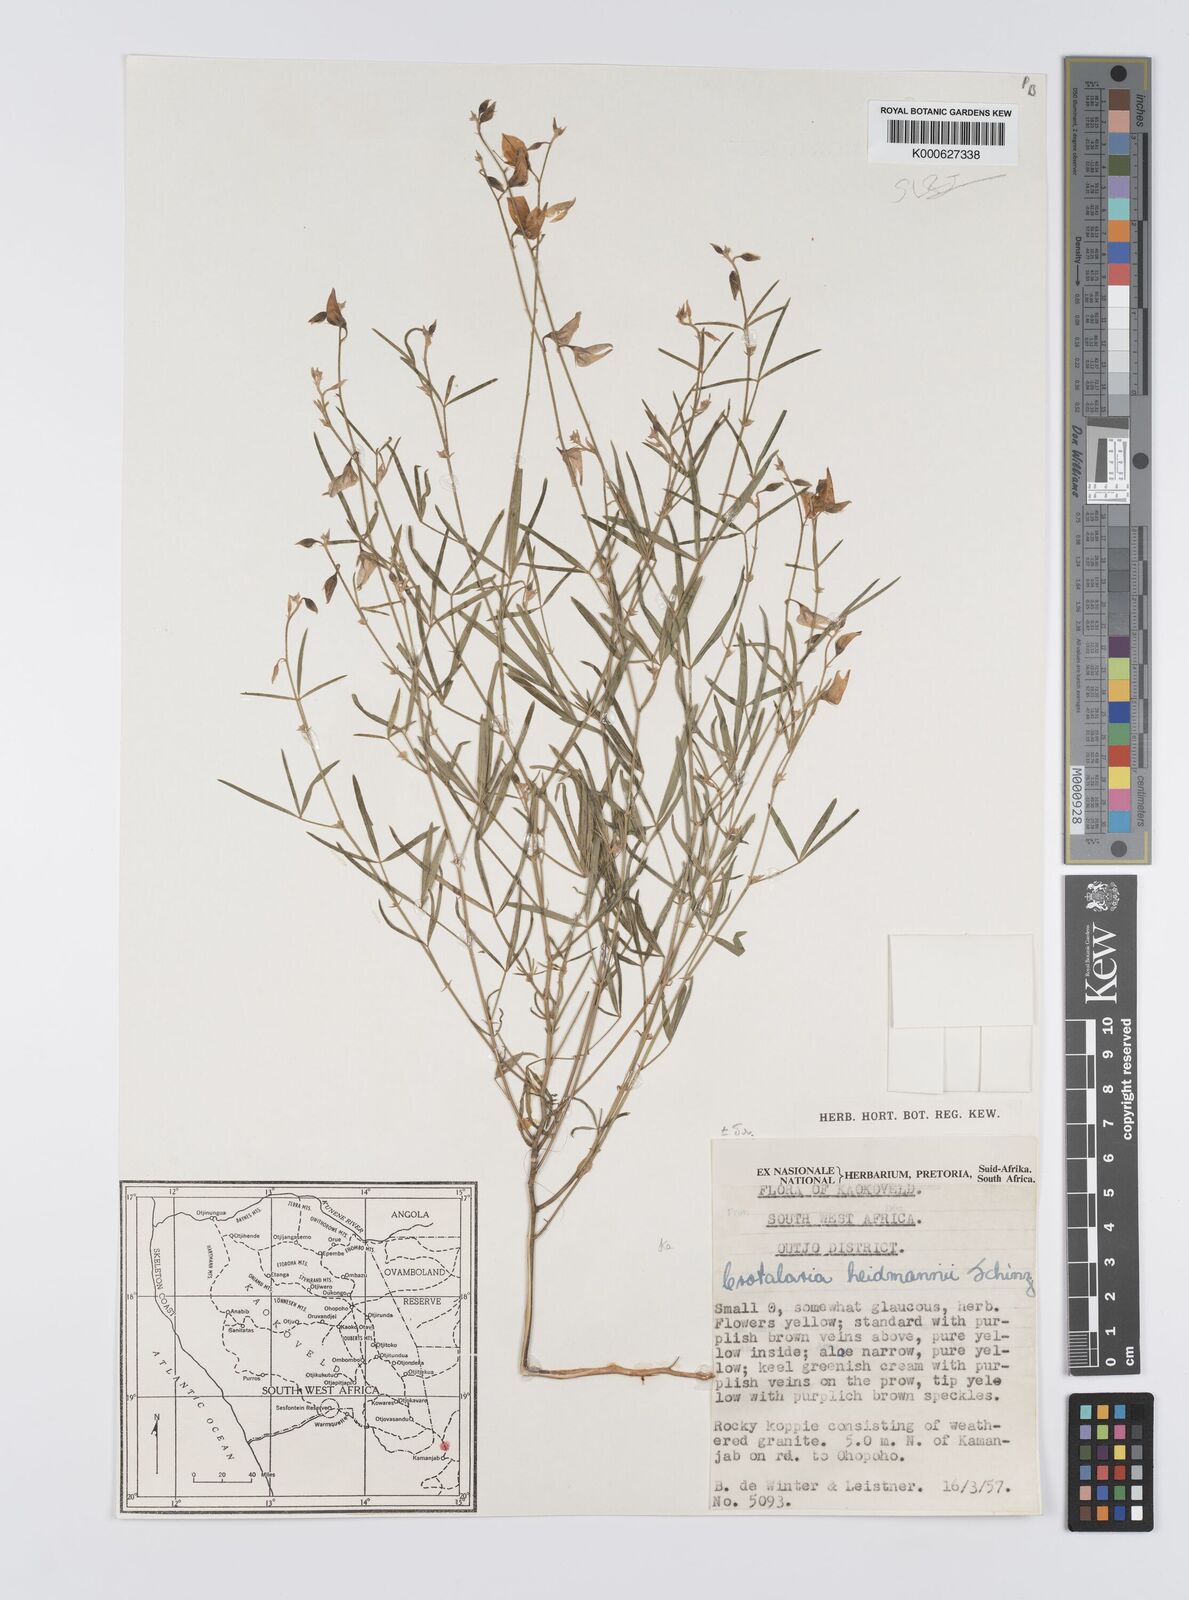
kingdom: Plantae
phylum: Tracheophyta
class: Magnoliopsida
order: Fabales
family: Fabaceae
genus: Crotalaria
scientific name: Crotalaria heidmannii
